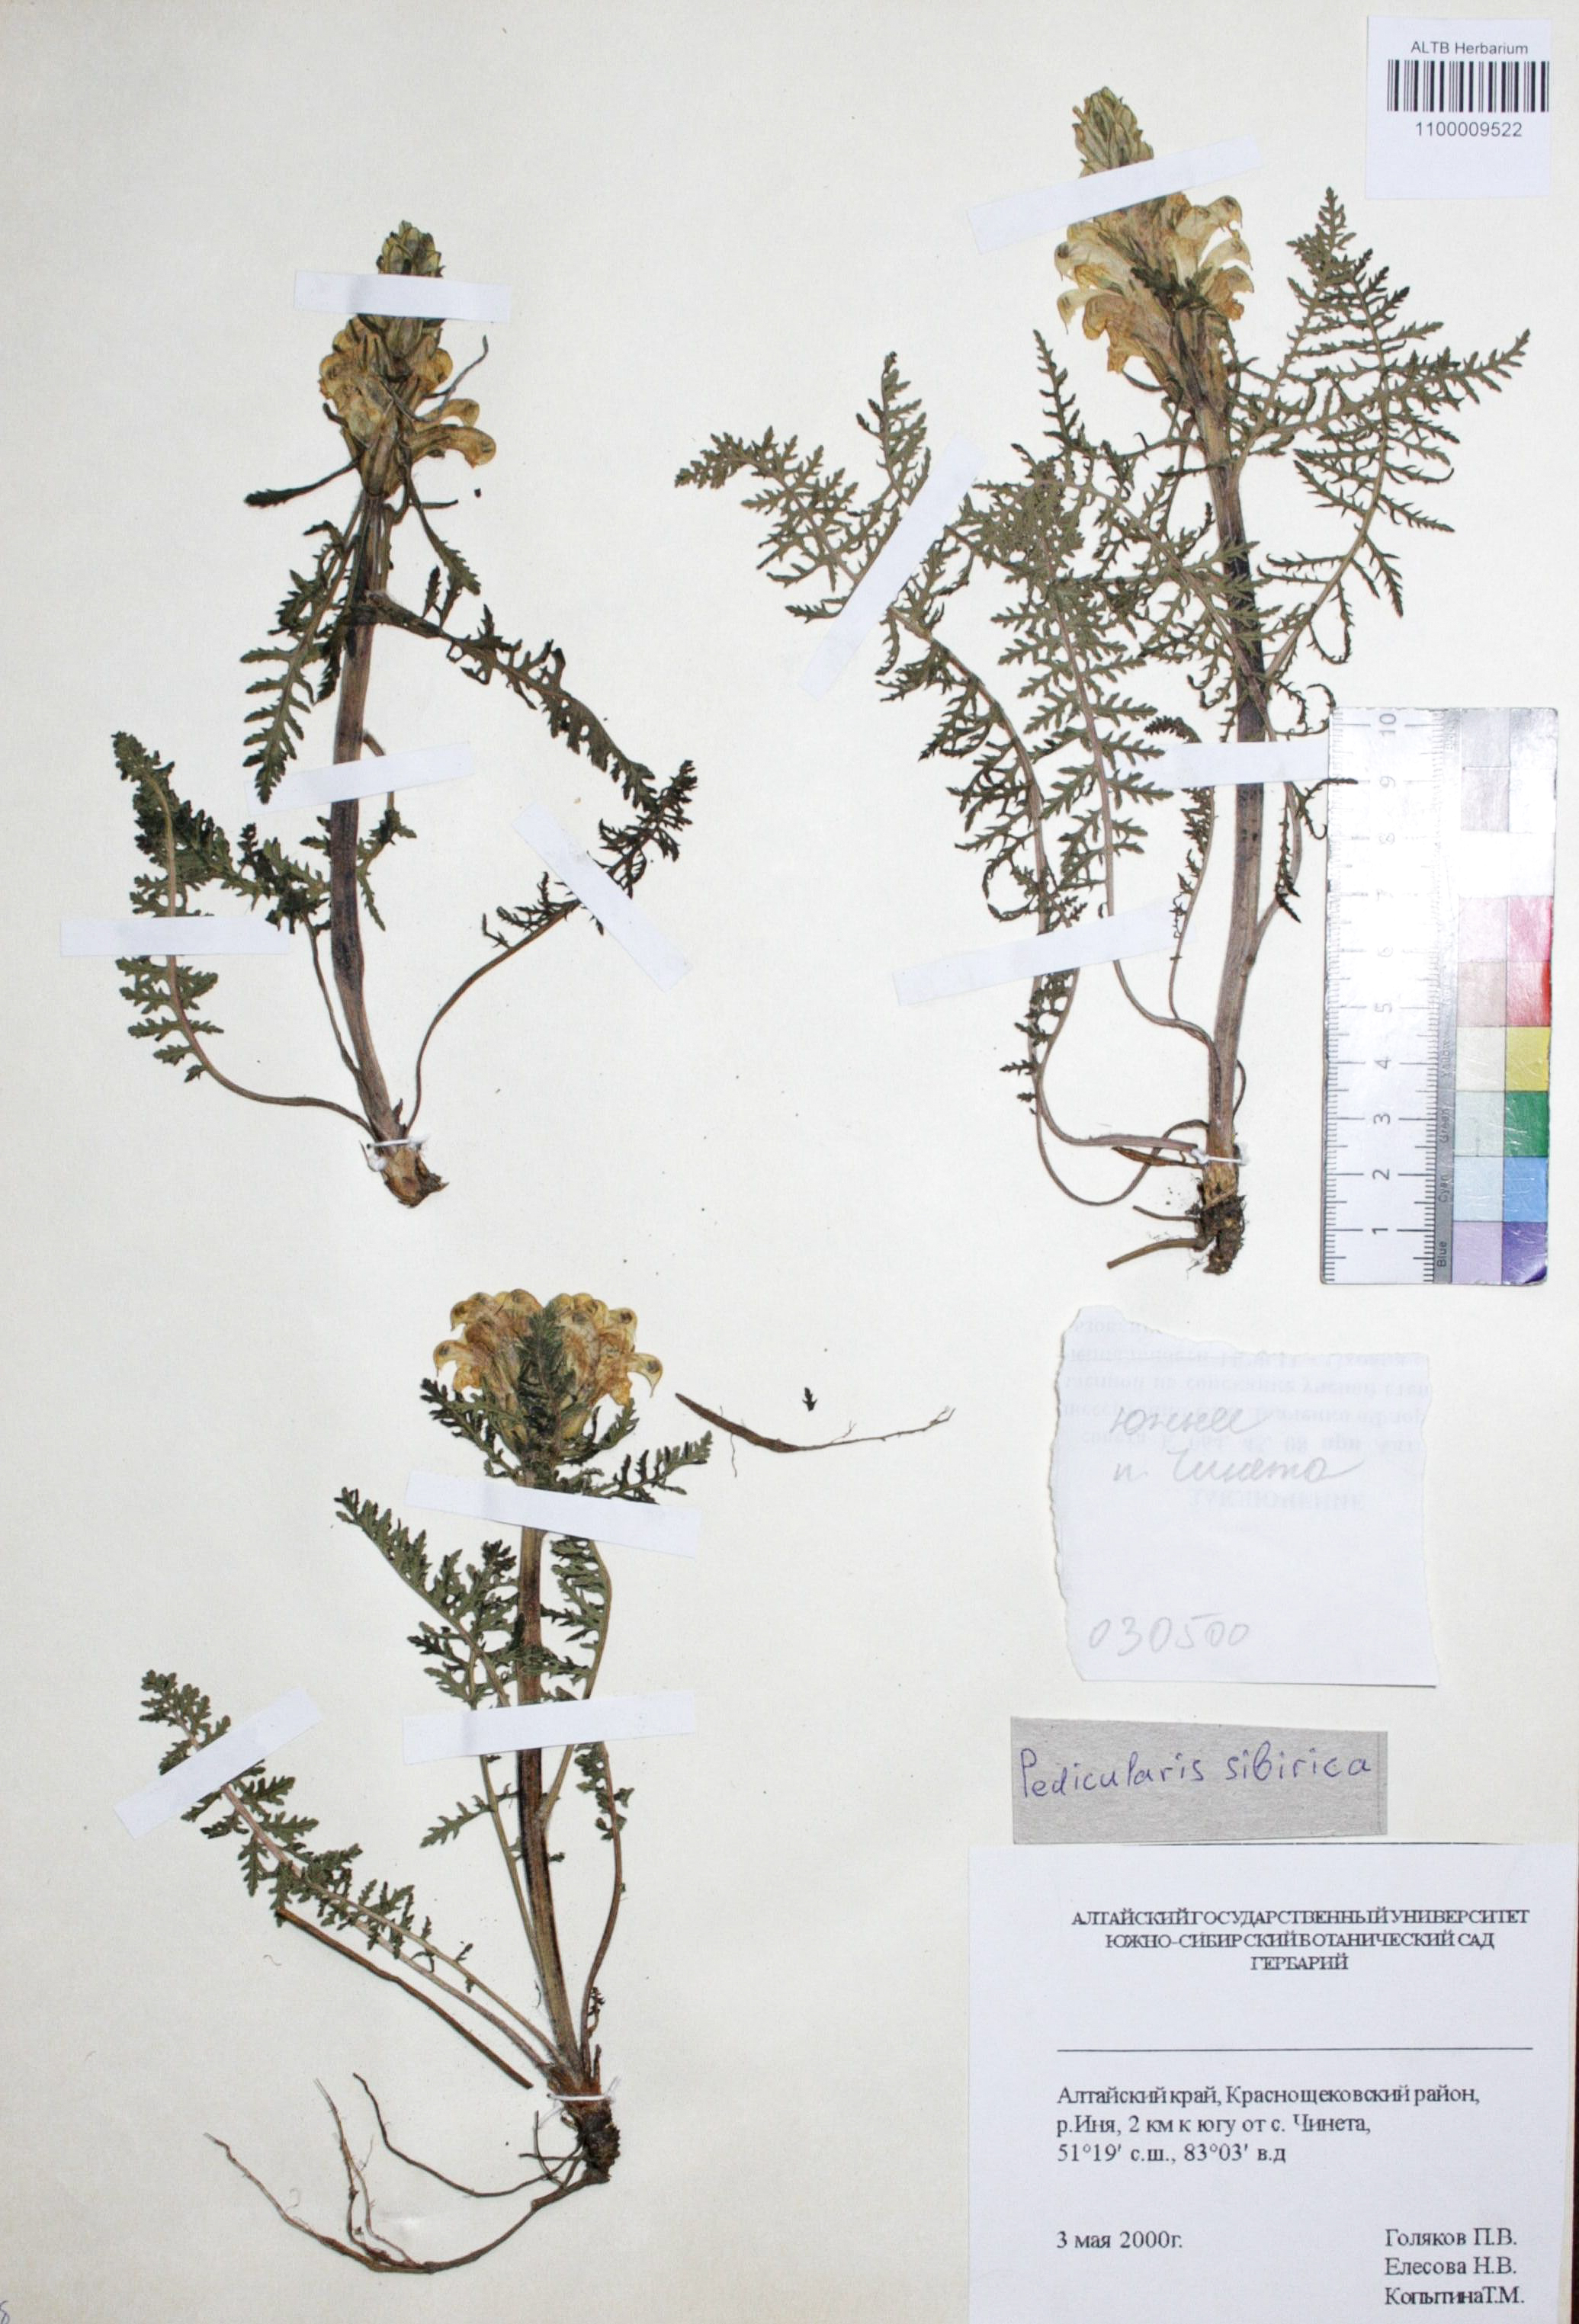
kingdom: Plantae
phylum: Tracheophyta
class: Magnoliopsida
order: Lamiales
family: Orobanchaceae
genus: Pedicularis
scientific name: Pedicularis sibirica
